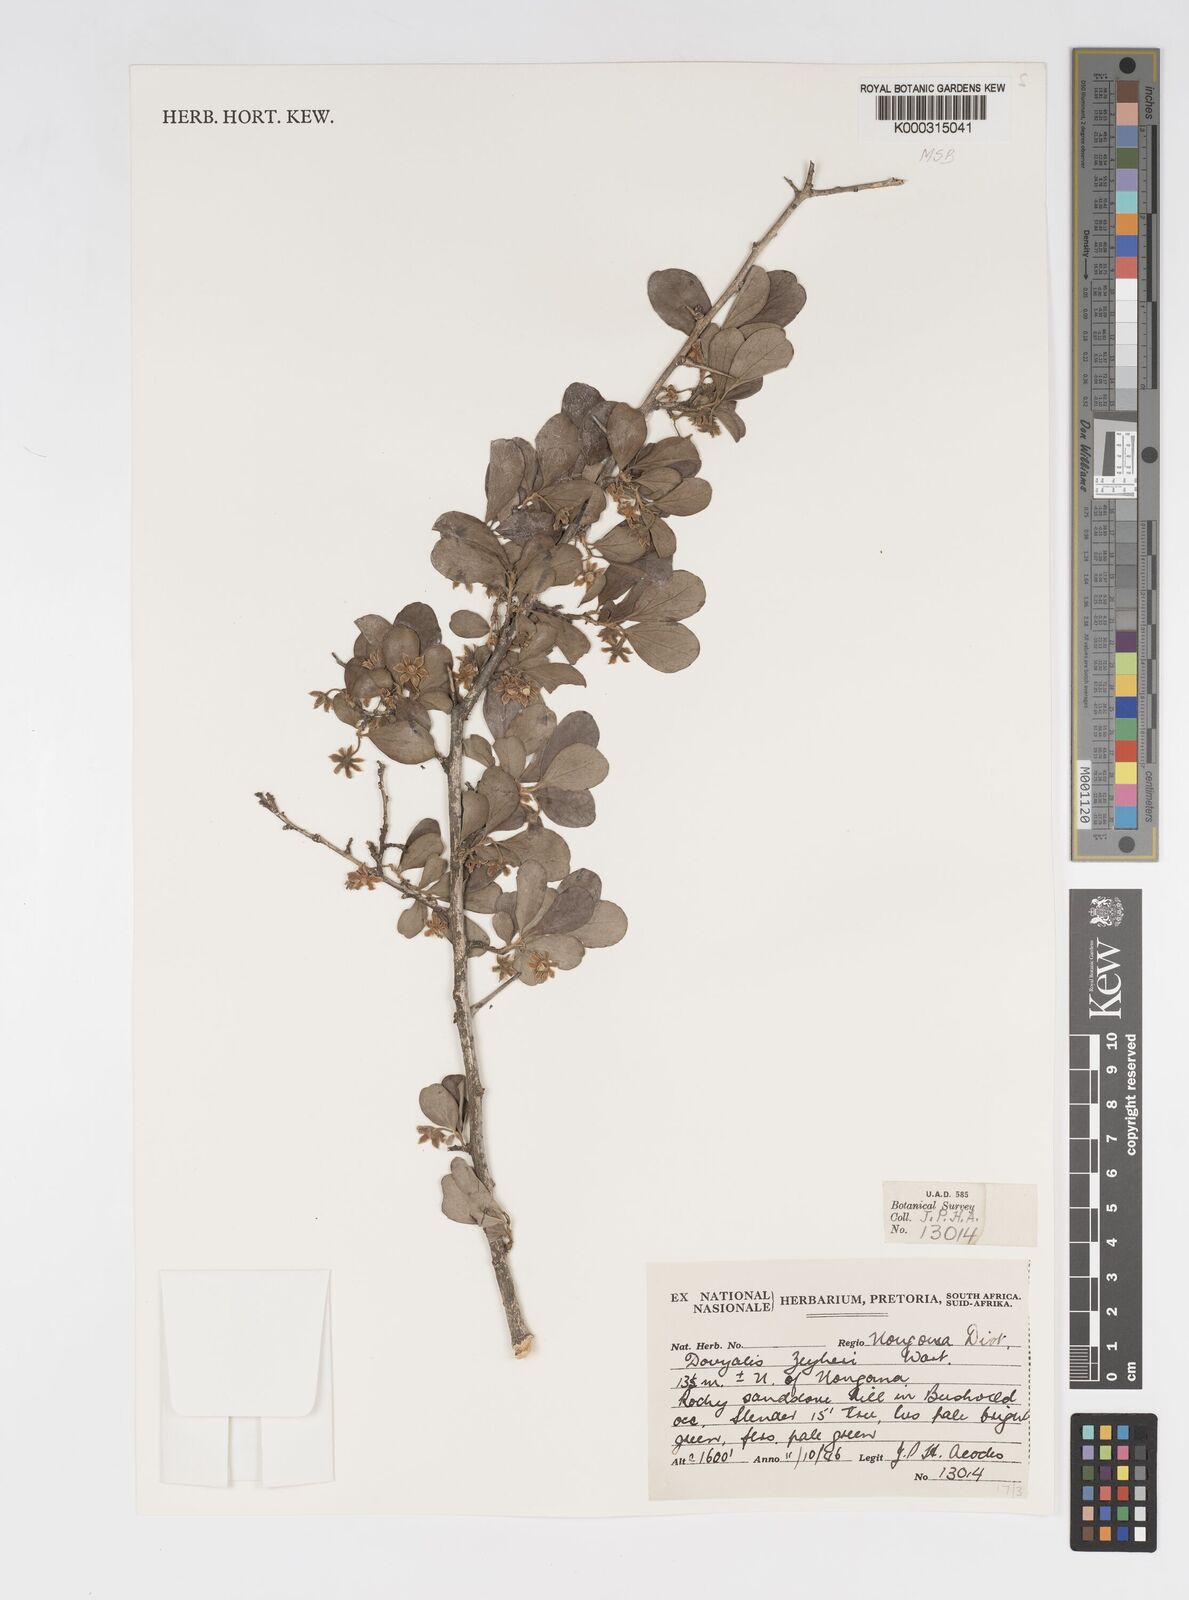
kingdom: Plantae
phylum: Tracheophyta
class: Magnoliopsida
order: Malpighiales
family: Salicaceae
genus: Dovyalis
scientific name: Dovyalis zeyheri
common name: Apricot sourberry
